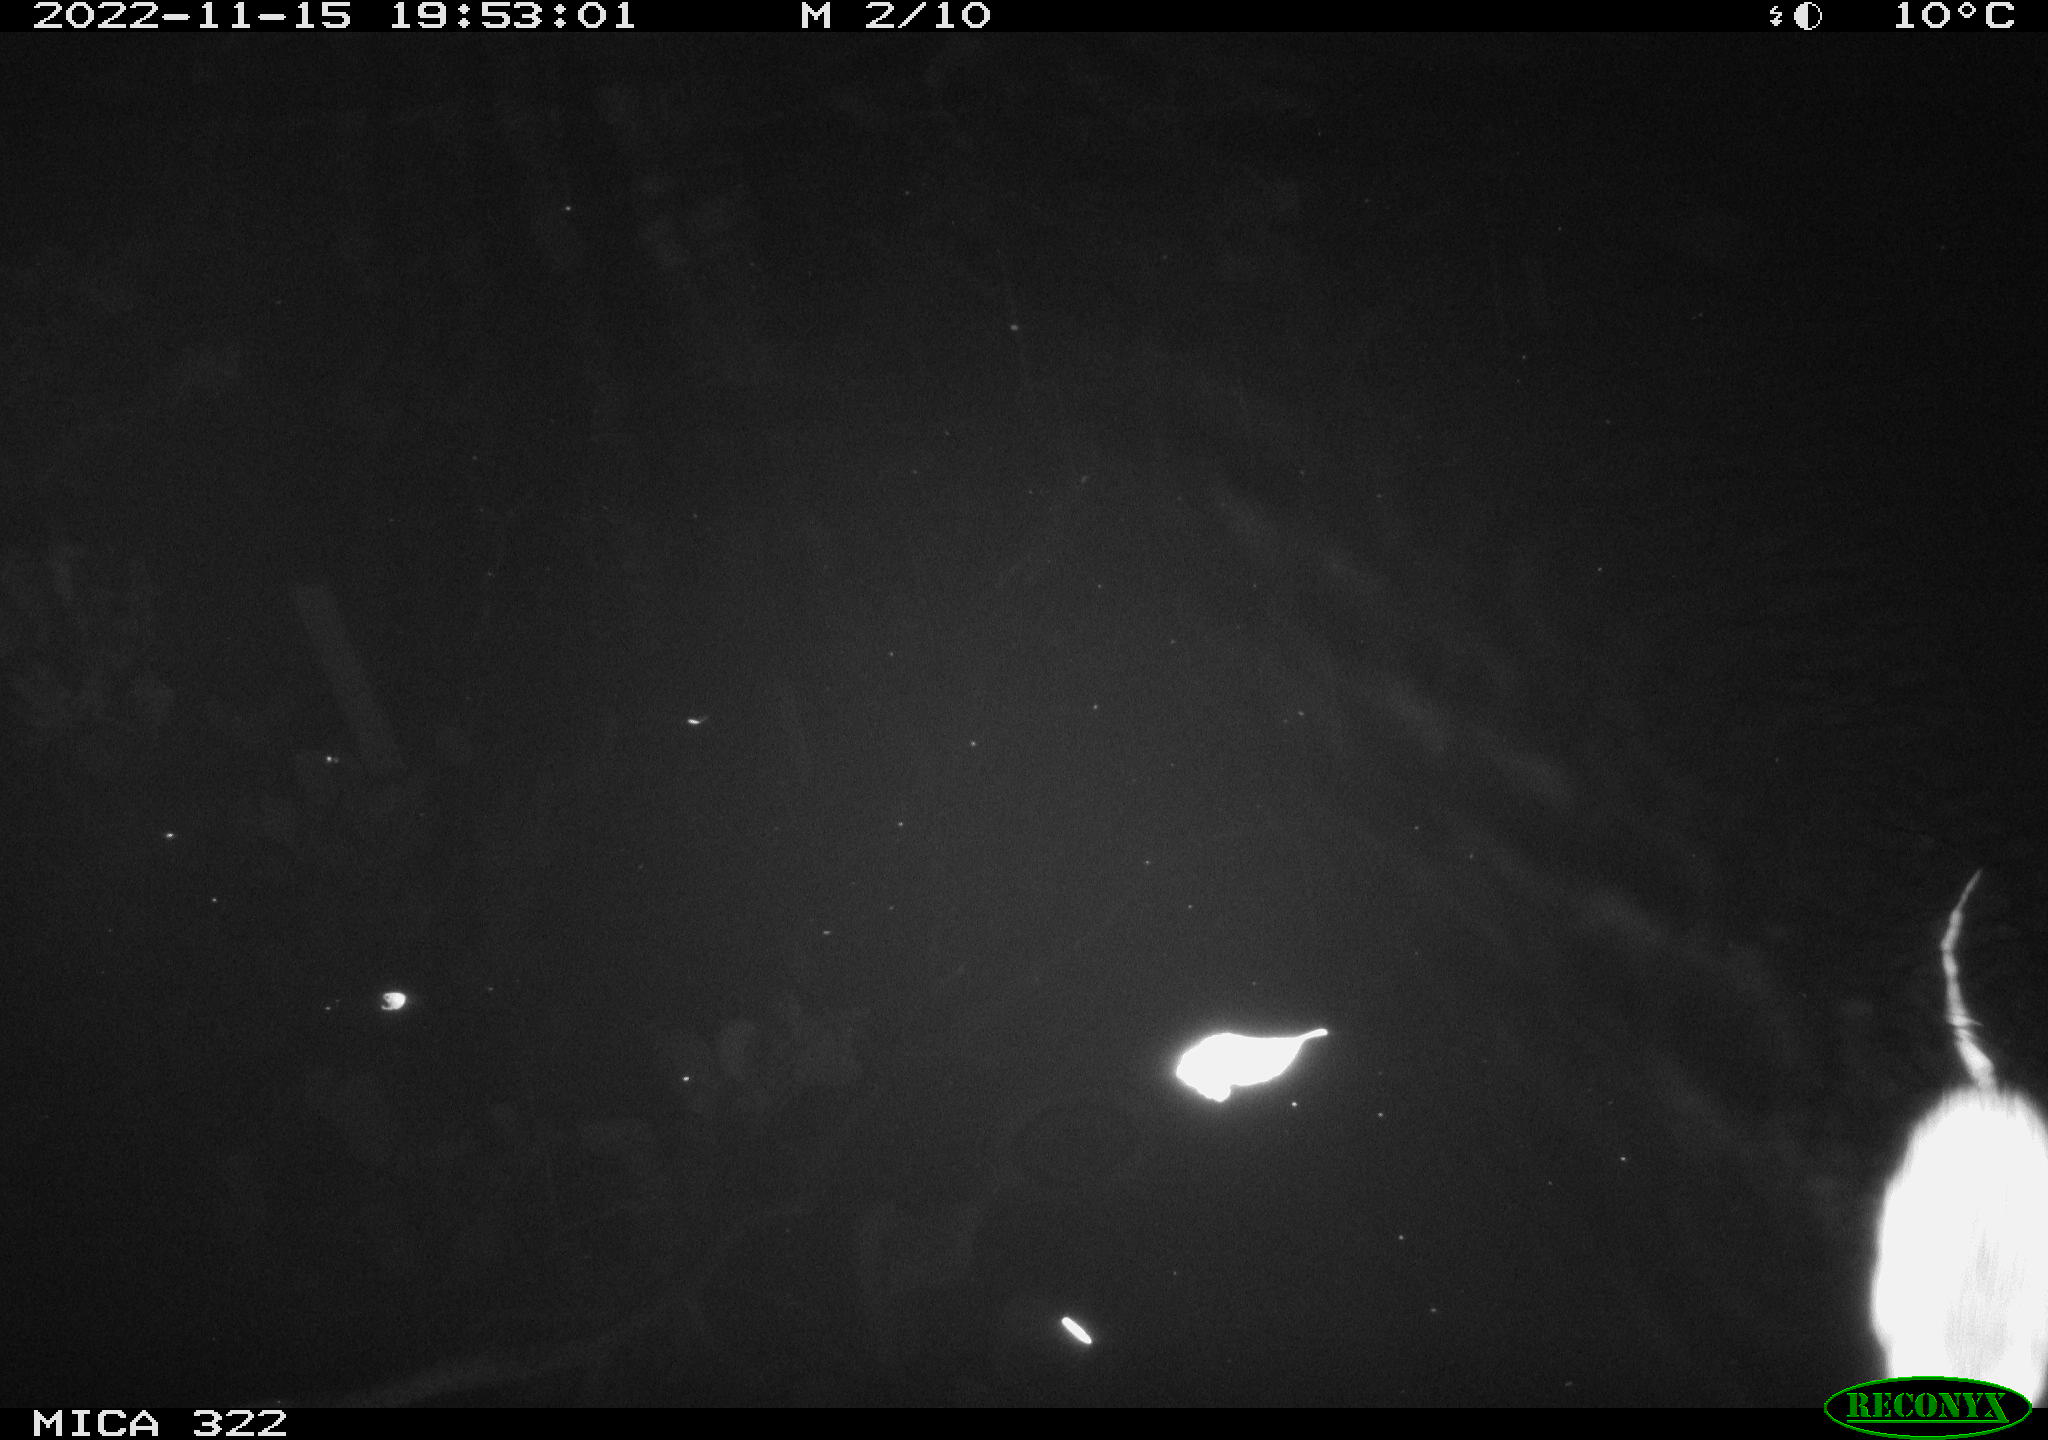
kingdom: Animalia
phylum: Chordata
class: Mammalia
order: Rodentia
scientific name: Rodentia
